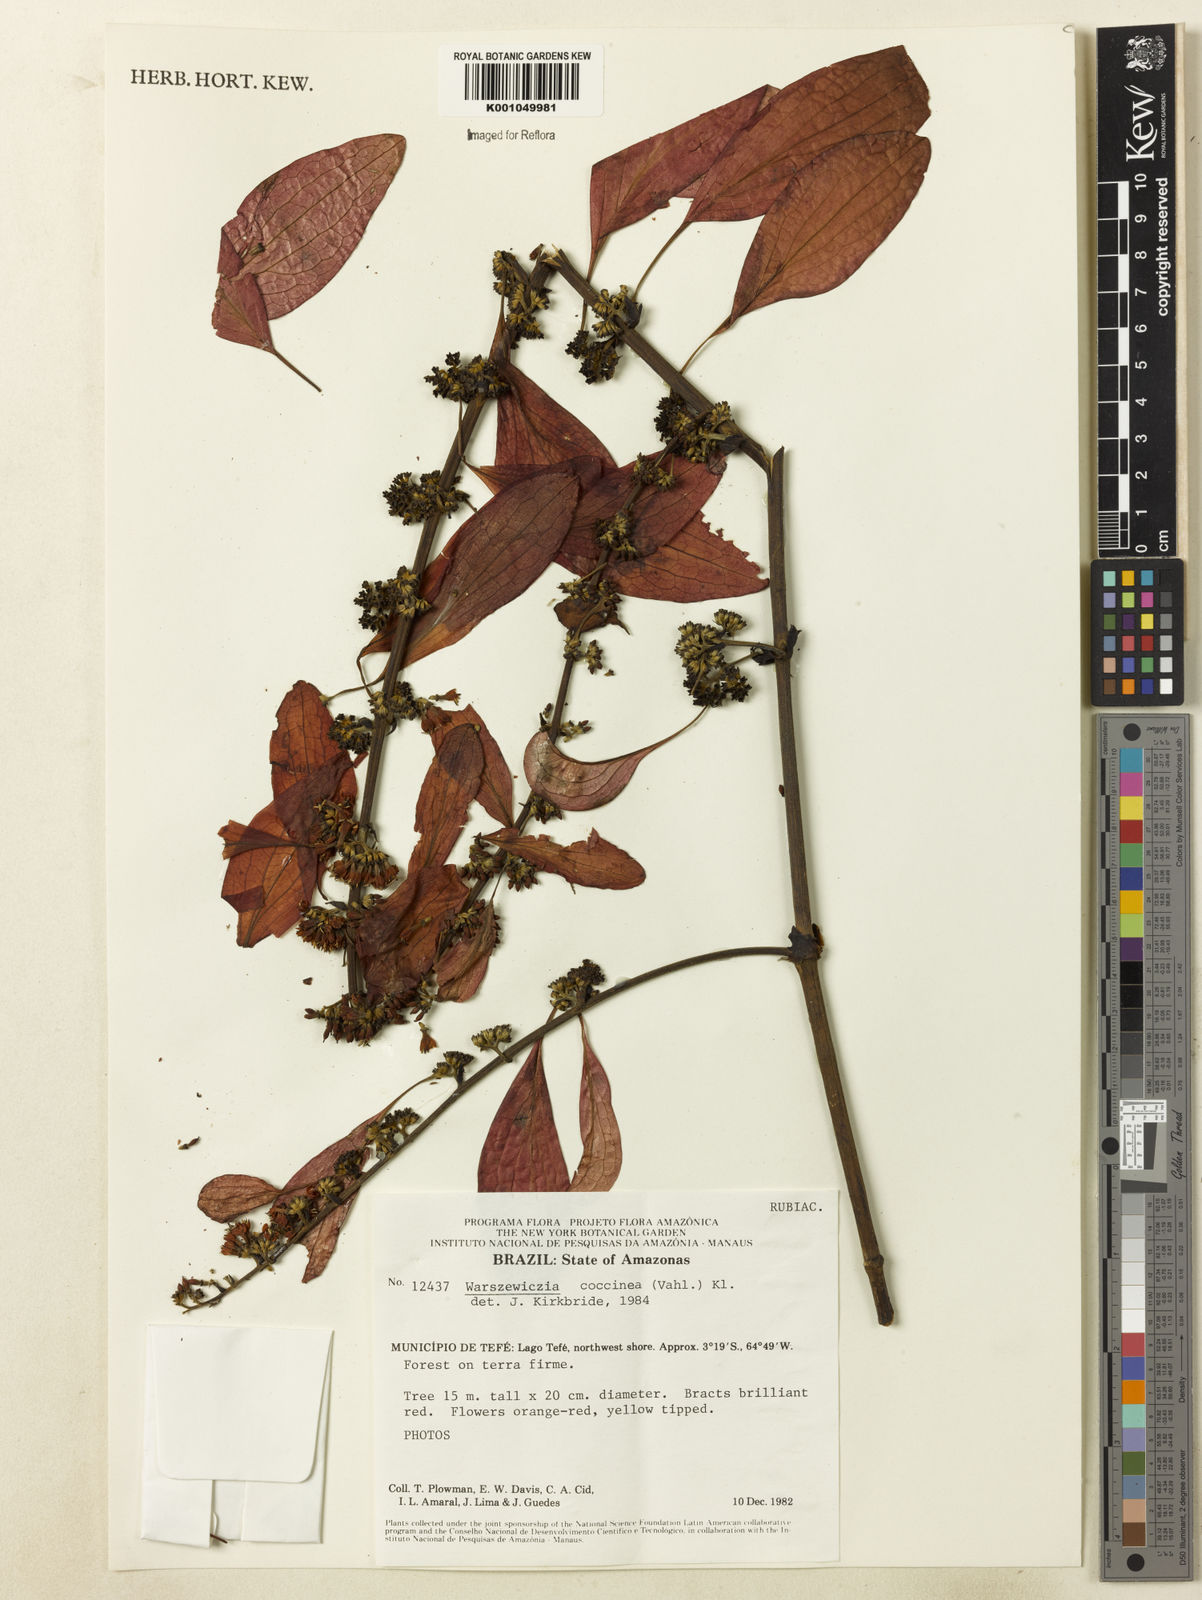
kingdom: Plantae
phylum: Tracheophyta
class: Magnoliopsida
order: Gentianales
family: Rubiaceae
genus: Warszewiczia
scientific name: Warszewiczia coccinea
